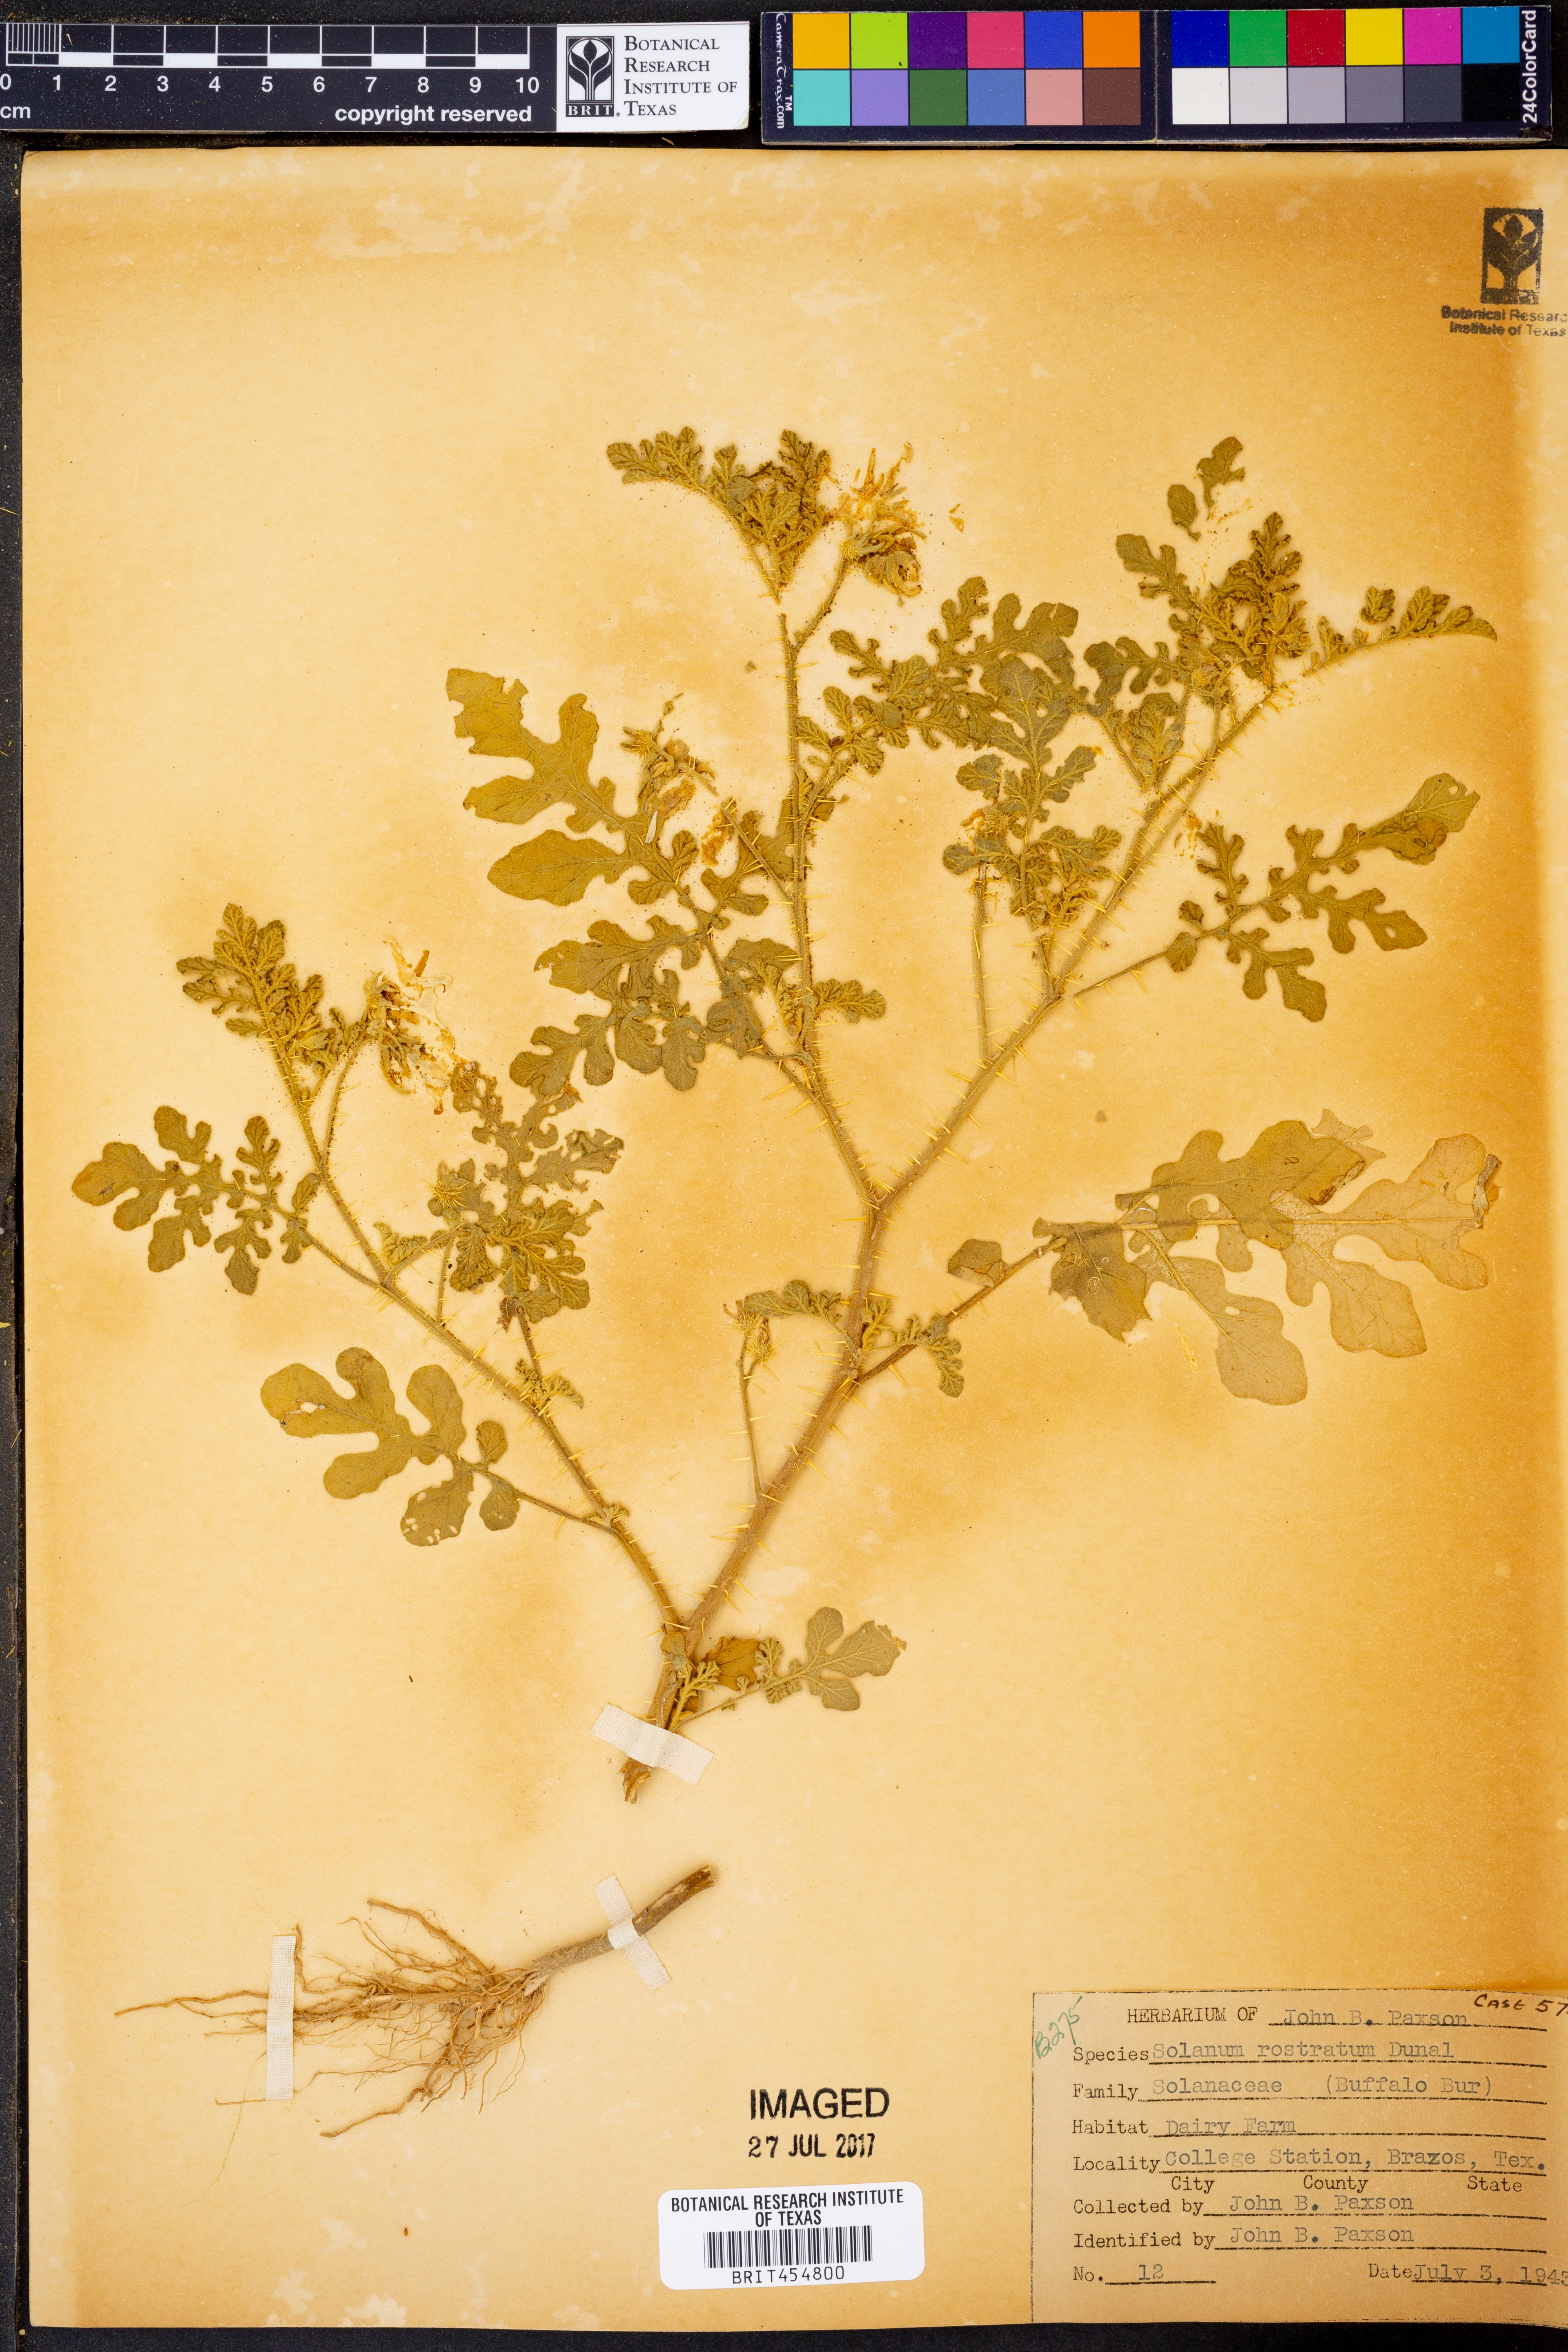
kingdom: Plantae
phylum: Tracheophyta
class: Magnoliopsida
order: Solanales
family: Solanaceae
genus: Solanum
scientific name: Solanum angustifolium
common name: Buffalobur nightshade
